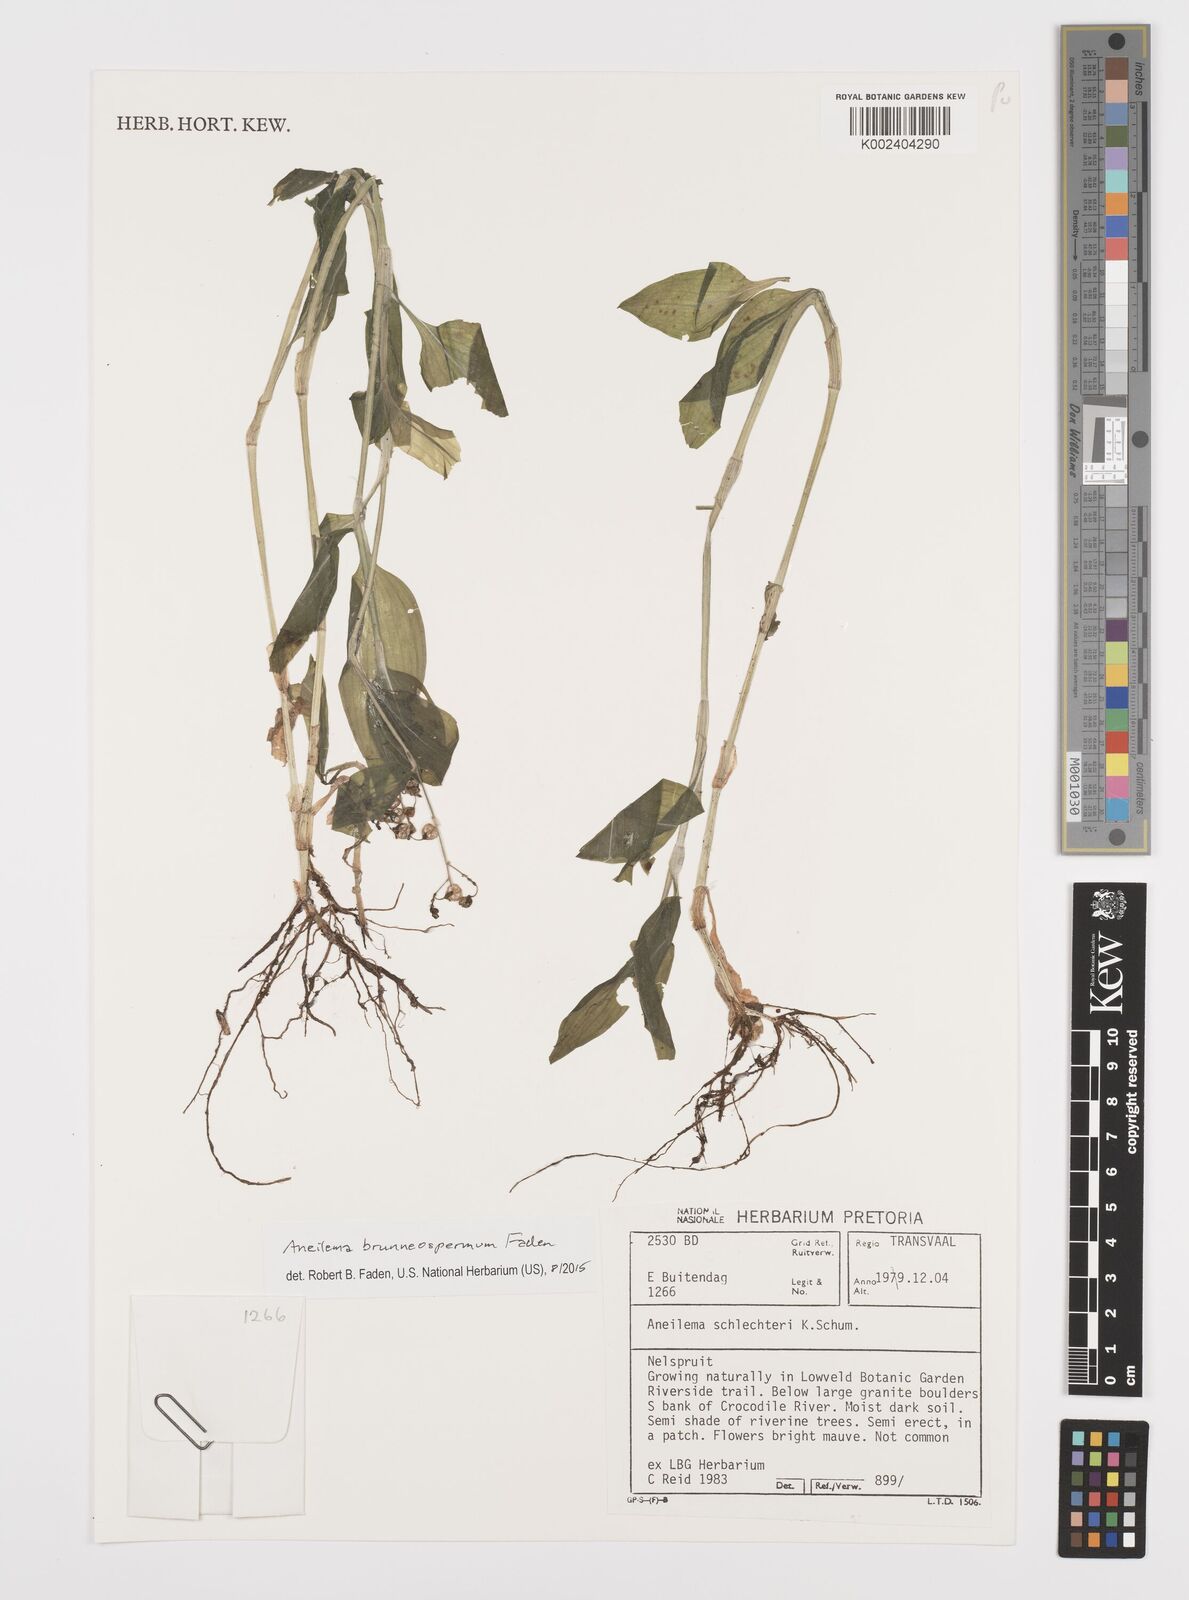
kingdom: Plantae
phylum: Tracheophyta
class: Liliopsida
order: Commelinales
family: Commelinaceae
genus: Aneilema
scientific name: Aneilema brunneospermum
